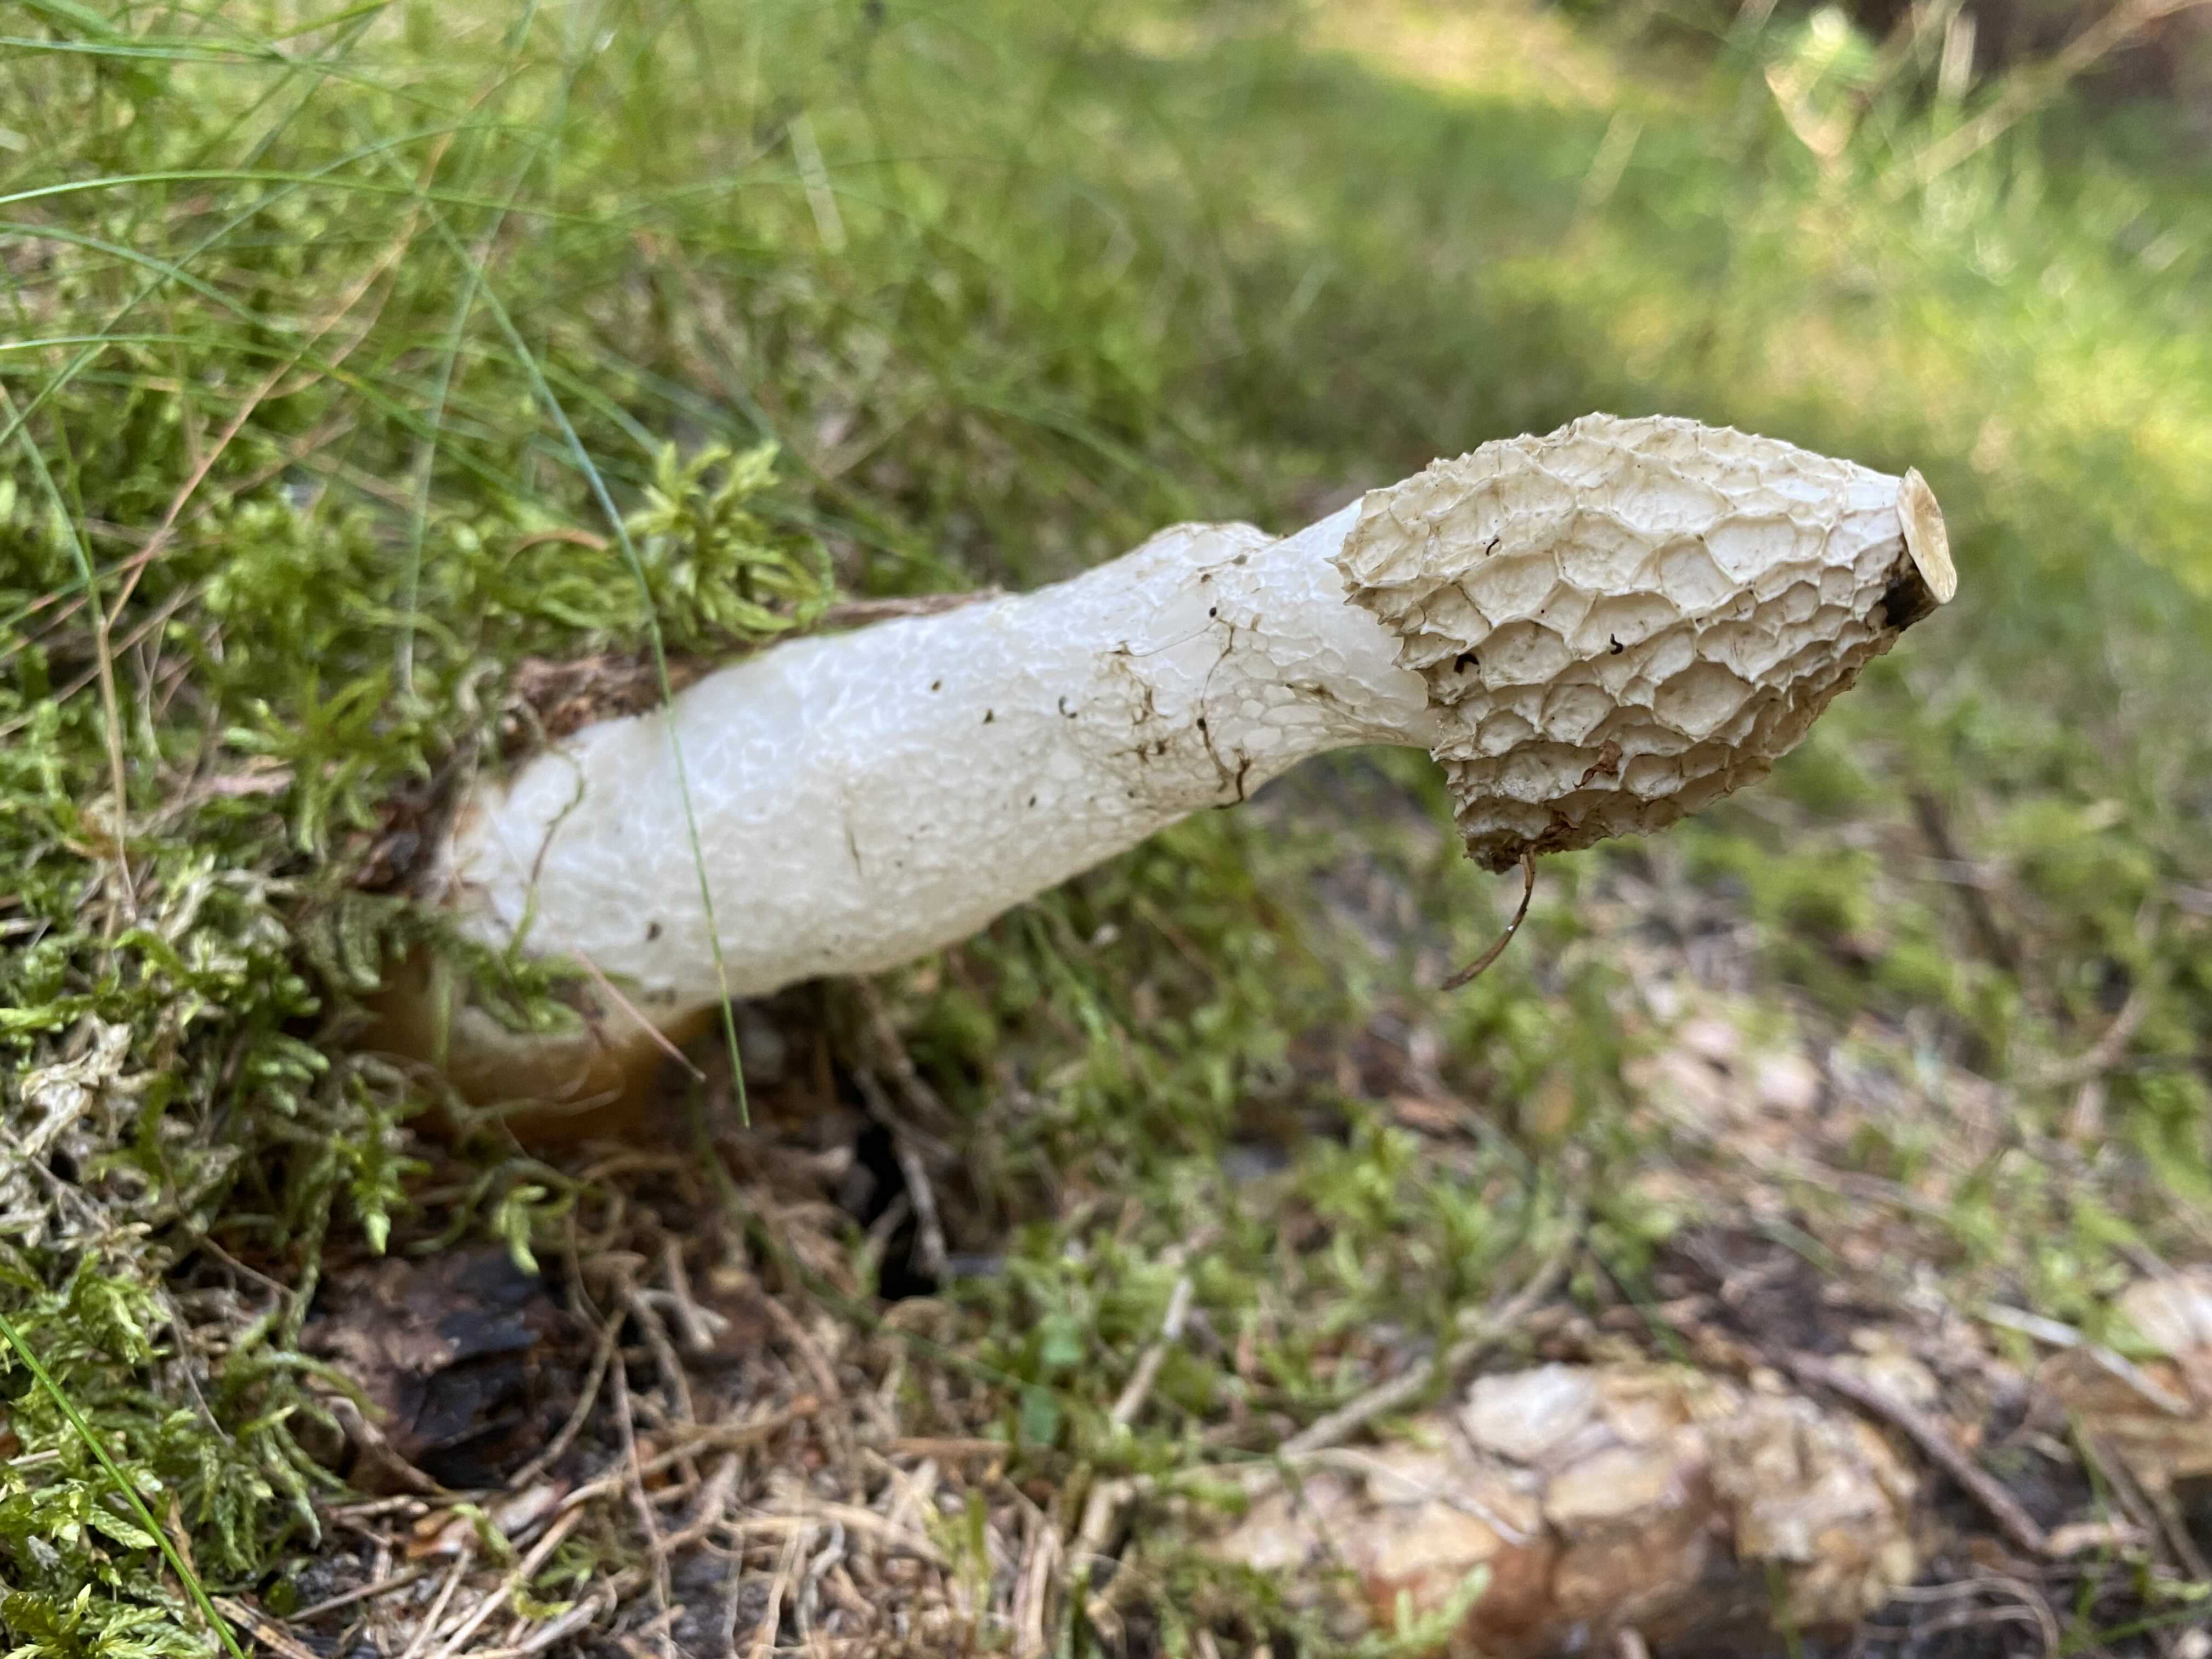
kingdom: Fungi
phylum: Basidiomycota
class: Agaricomycetes
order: Phallales
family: Phallaceae
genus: Phallus
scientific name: Phallus impudicus
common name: almindelig stinksvamp
